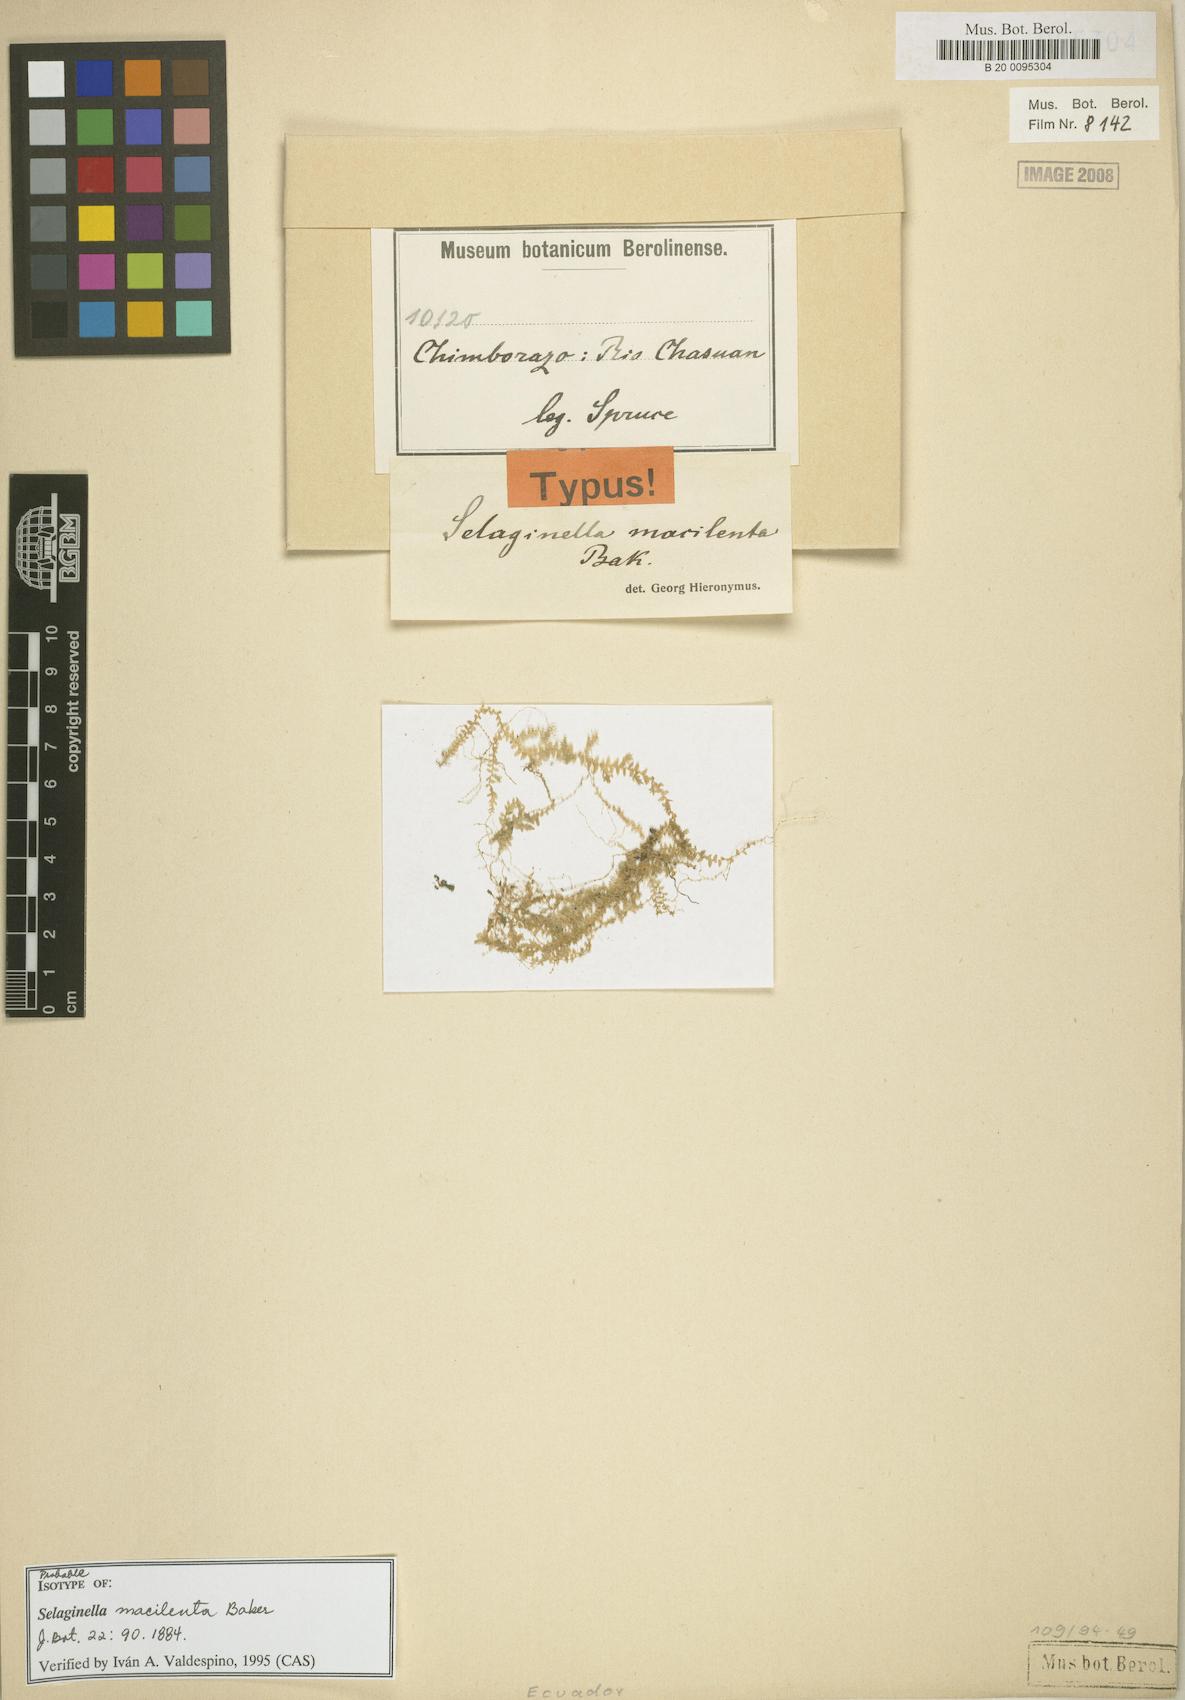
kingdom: Plantae
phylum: Tracheophyta
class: Lycopodiopsida
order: Selaginellales
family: Selaginellaceae
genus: Selaginella
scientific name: Selaginella macilenta
